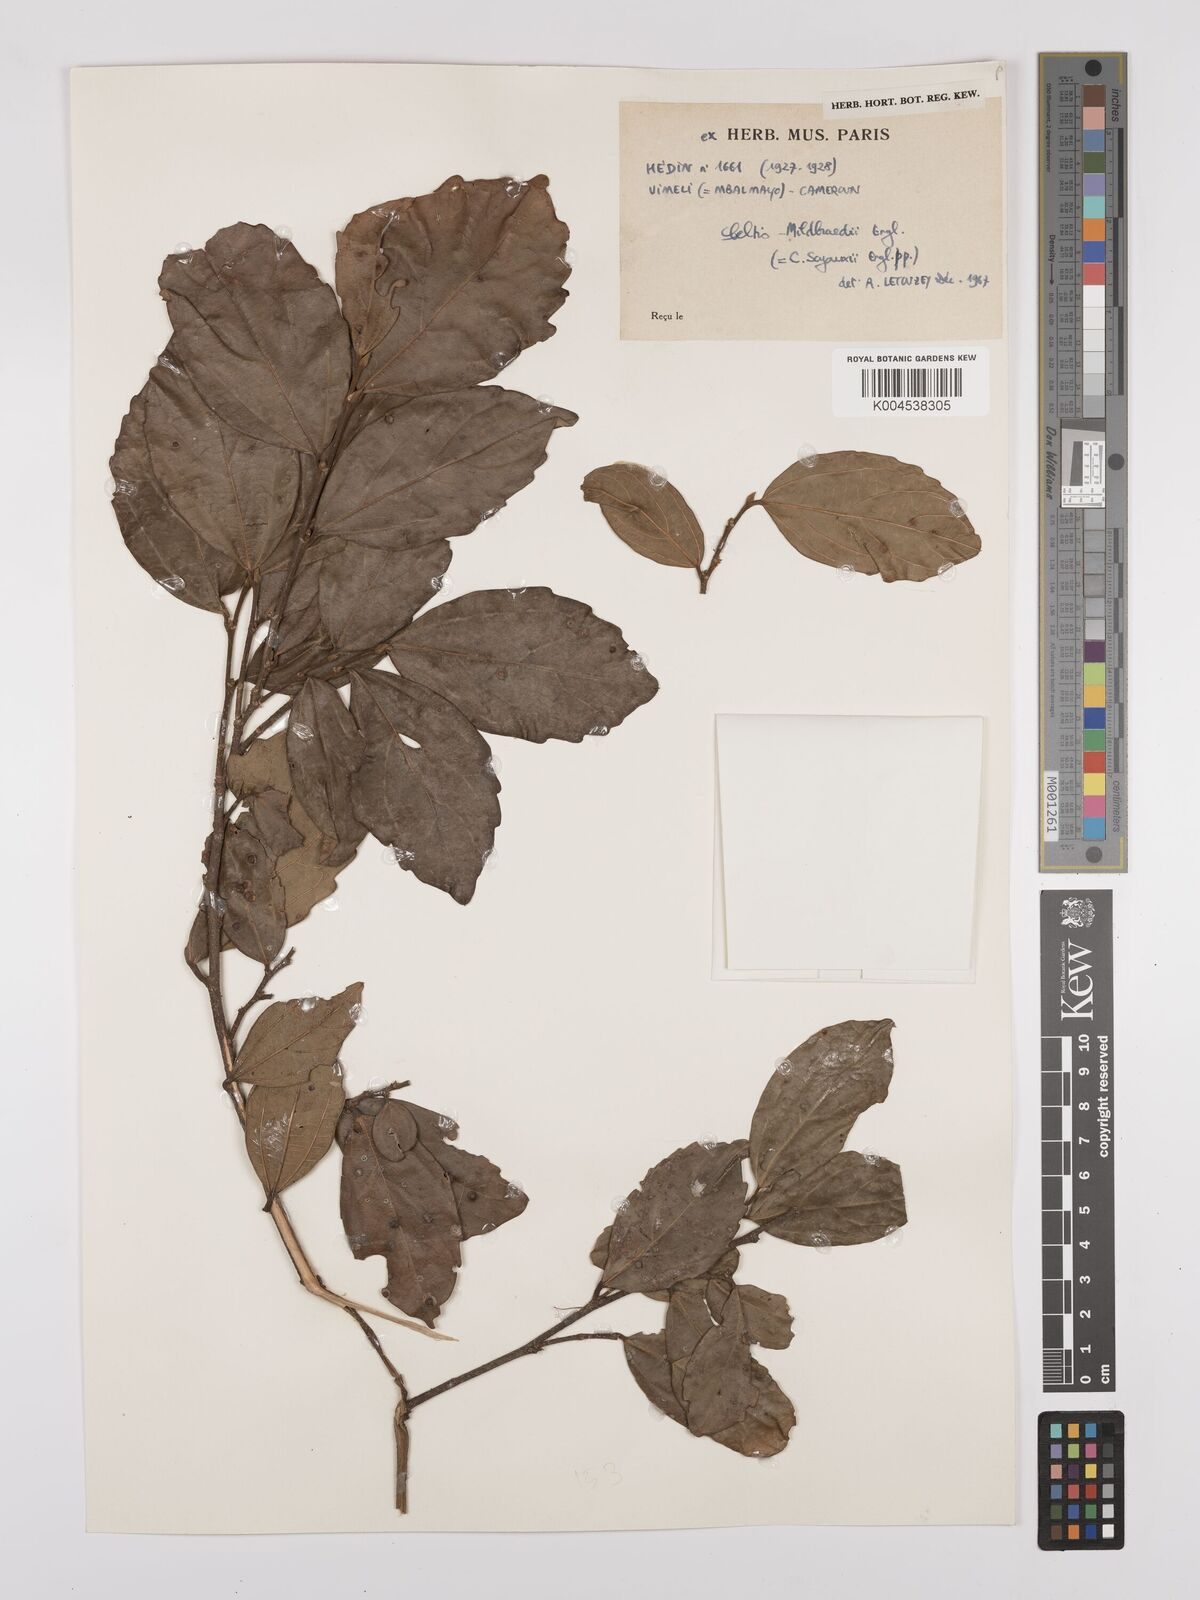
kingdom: Plantae
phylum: Tracheophyta
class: Magnoliopsida
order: Rosales
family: Cannabaceae
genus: Celtis
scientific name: Celtis mildbraedii
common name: Red-fruited stinkwood
